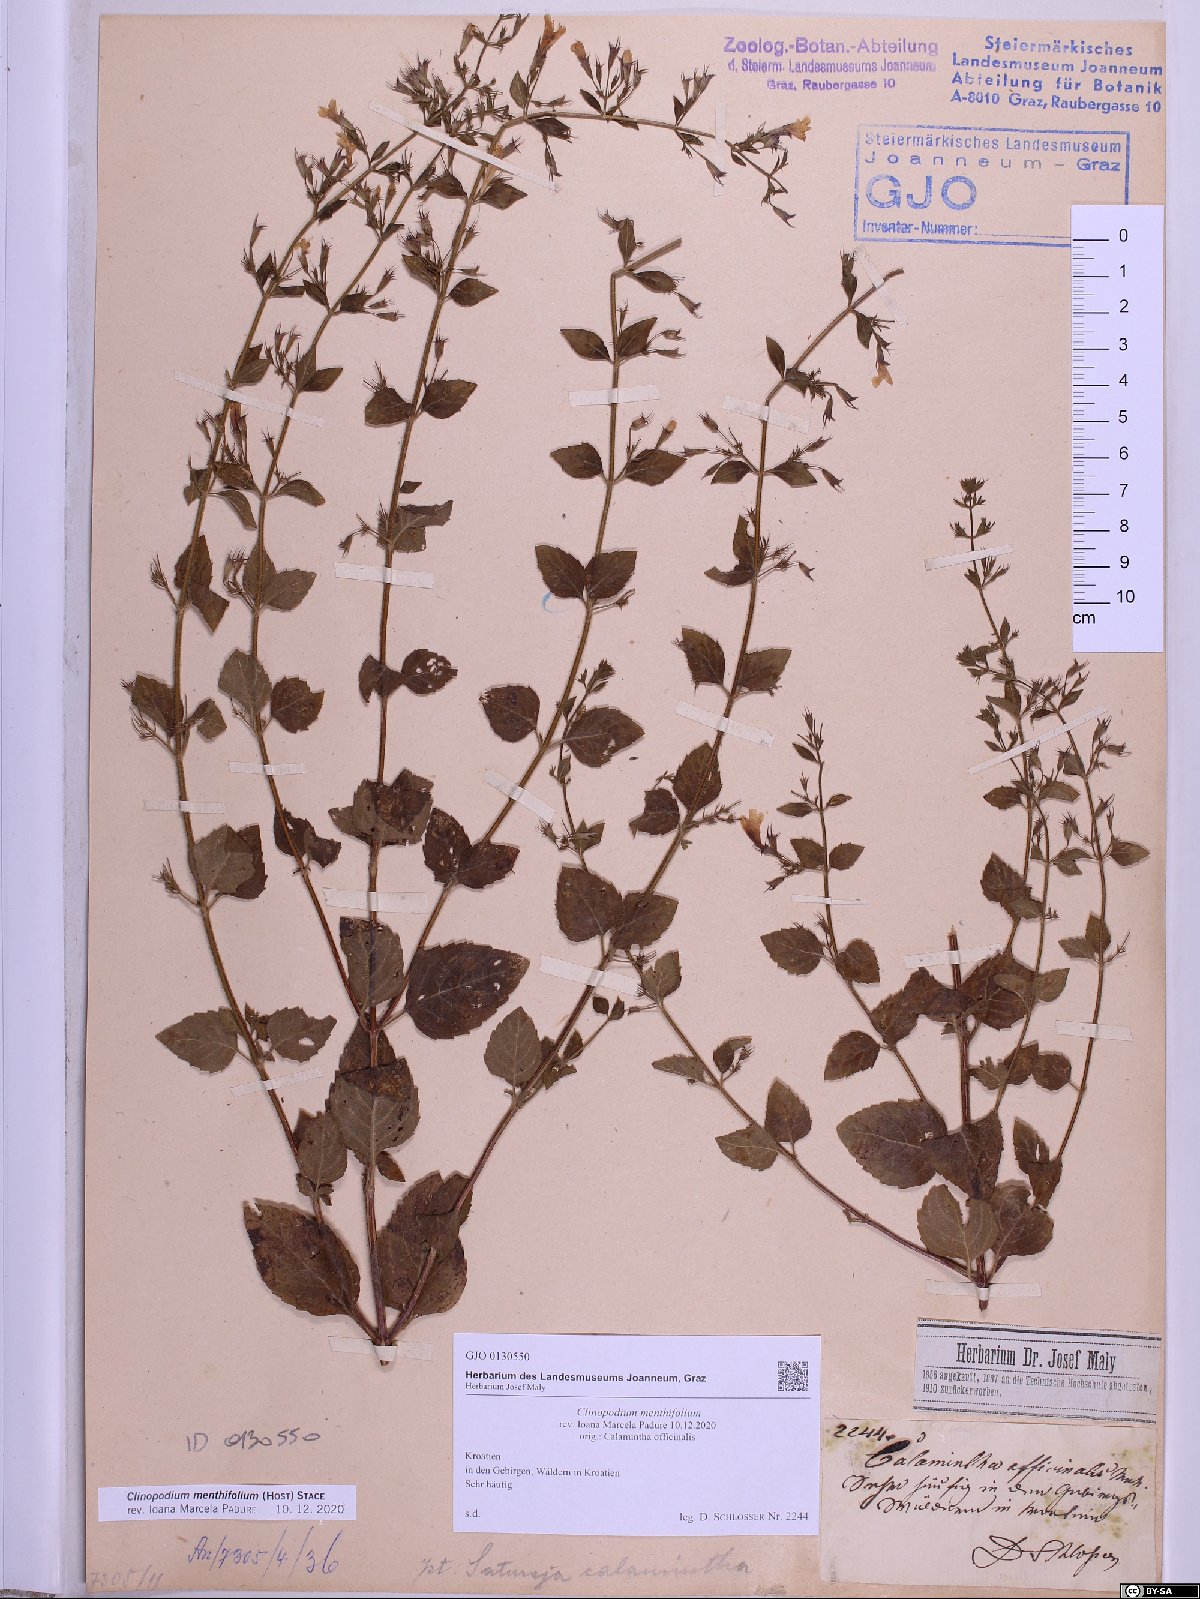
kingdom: Plantae
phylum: Tracheophyta
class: Magnoliopsida
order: Lamiales
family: Lamiaceae
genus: Clinopodium
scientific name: Clinopodium menthifolium
